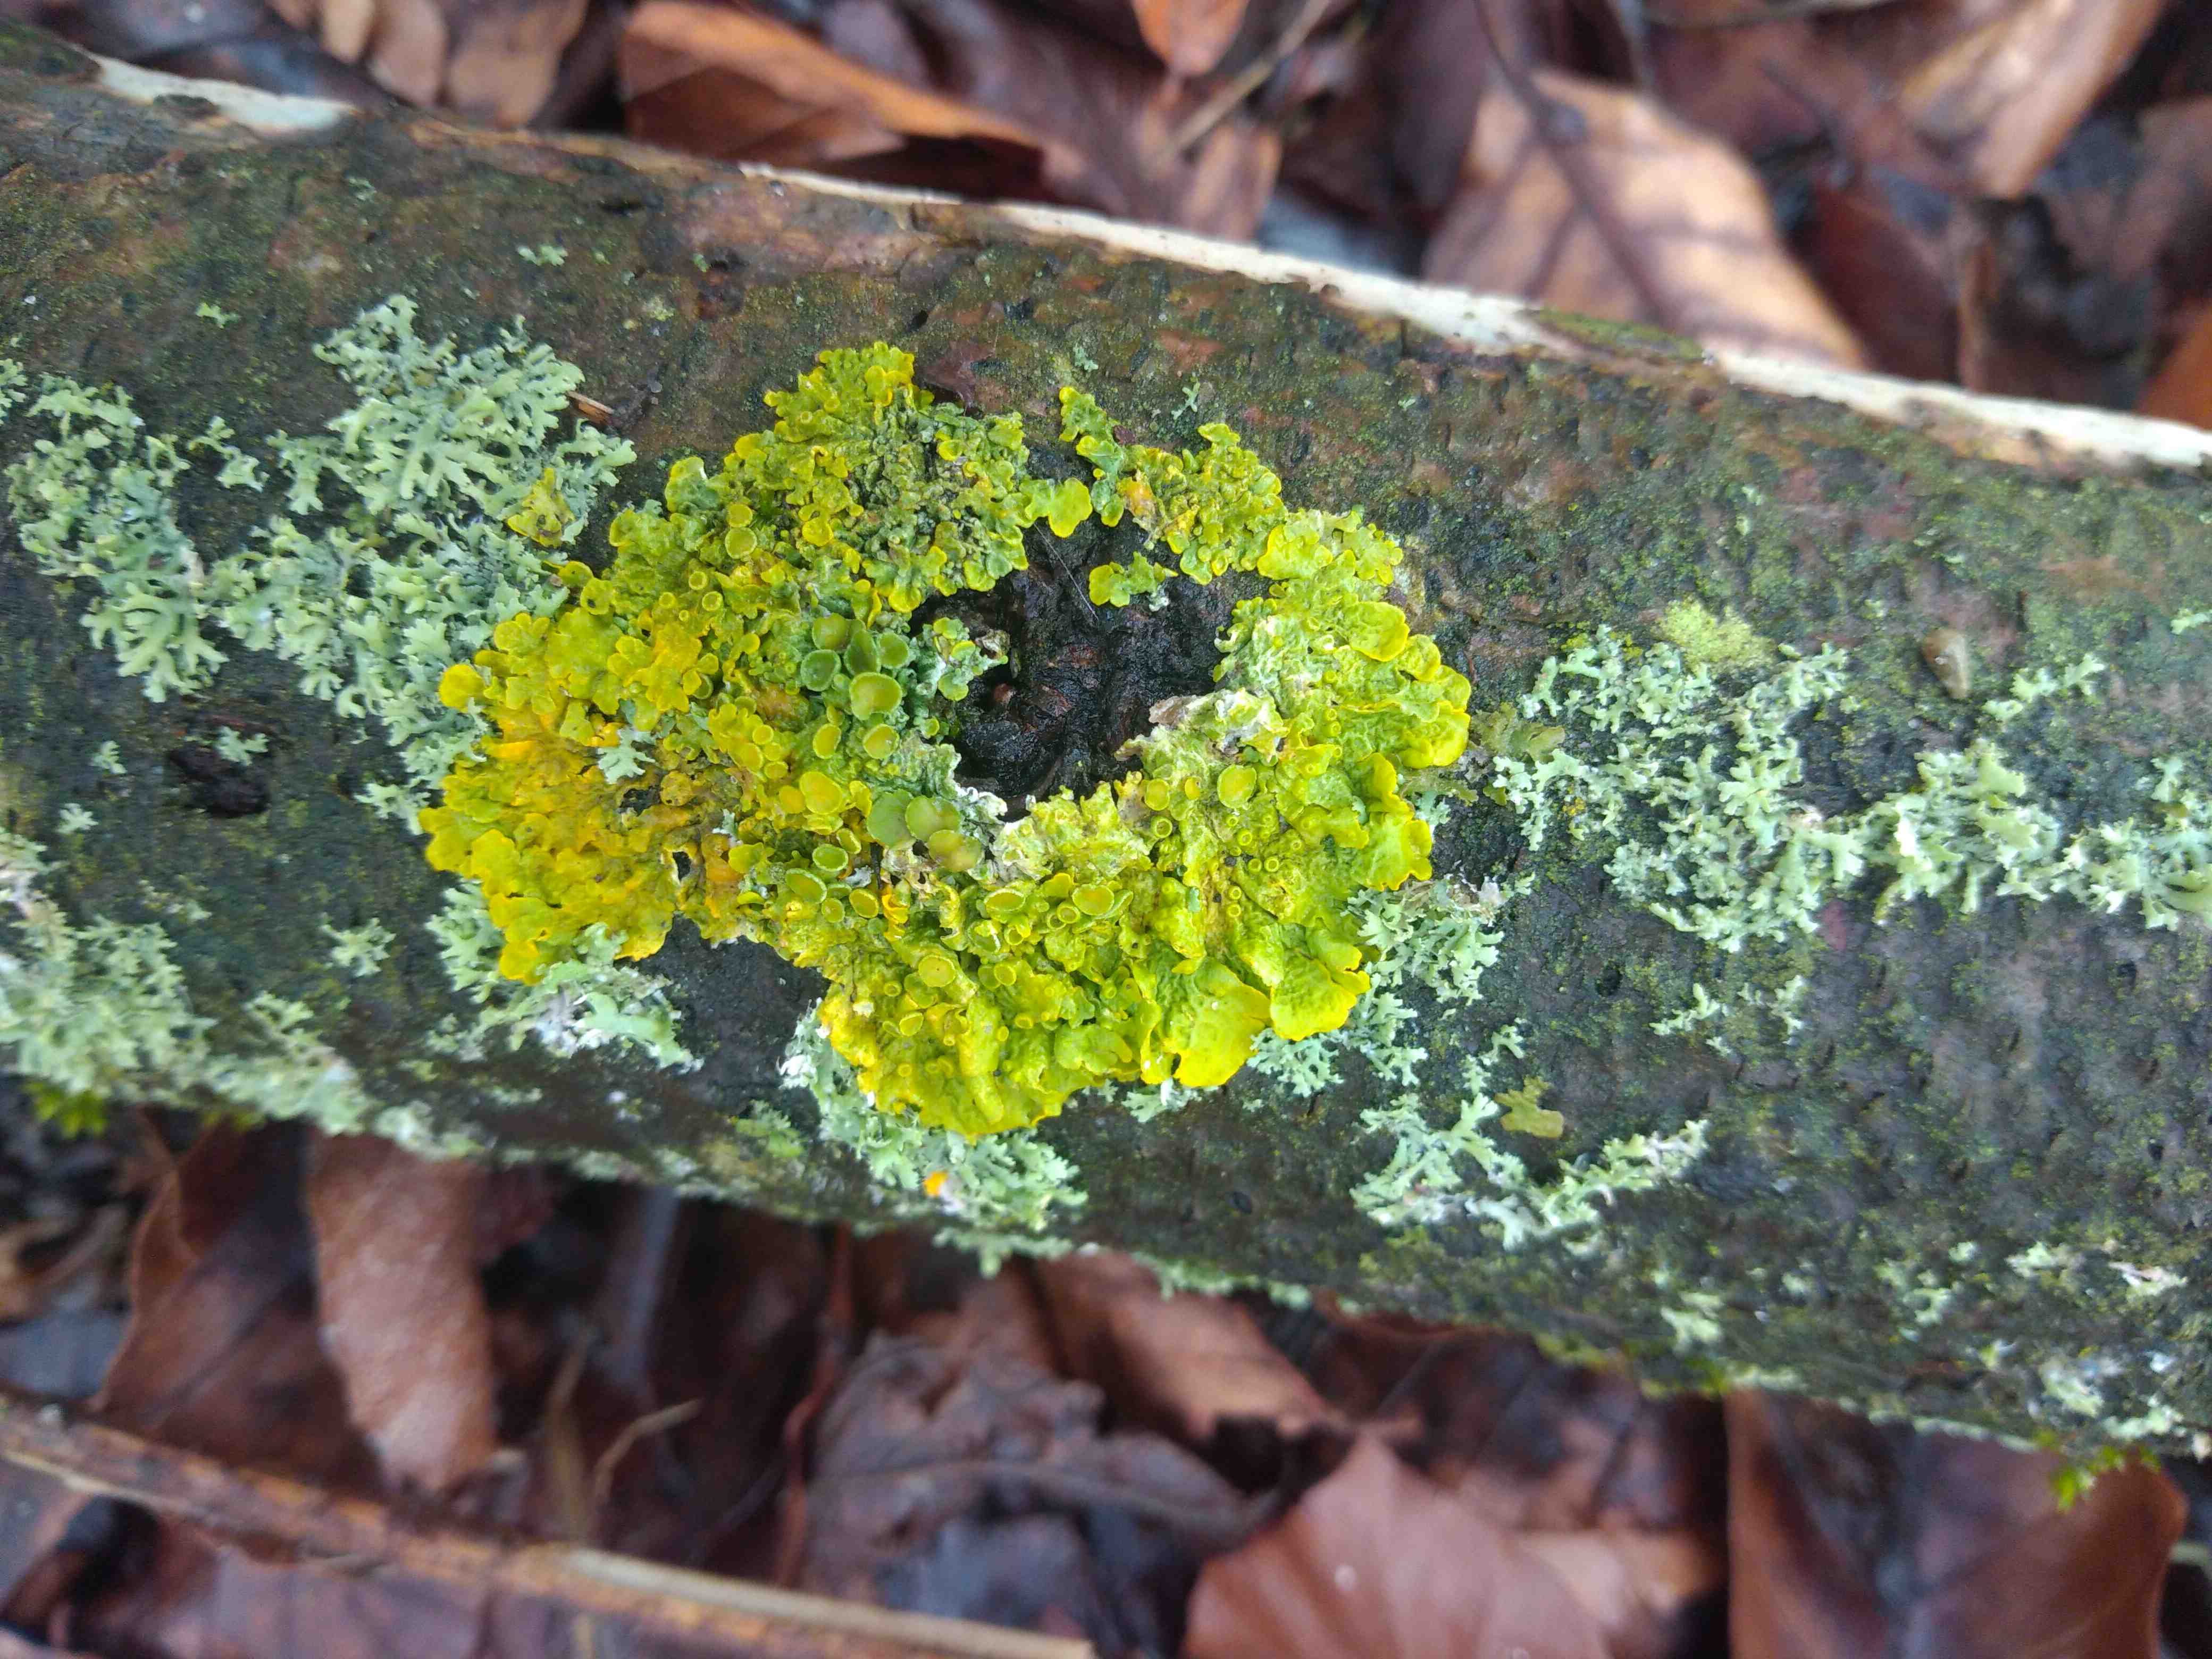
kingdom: Fungi
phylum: Ascomycota
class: Lecanoromycetes
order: Teloschistales
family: Teloschistaceae
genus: Xanthoria
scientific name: Xanthoria parietina
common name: almindelig væggelav
